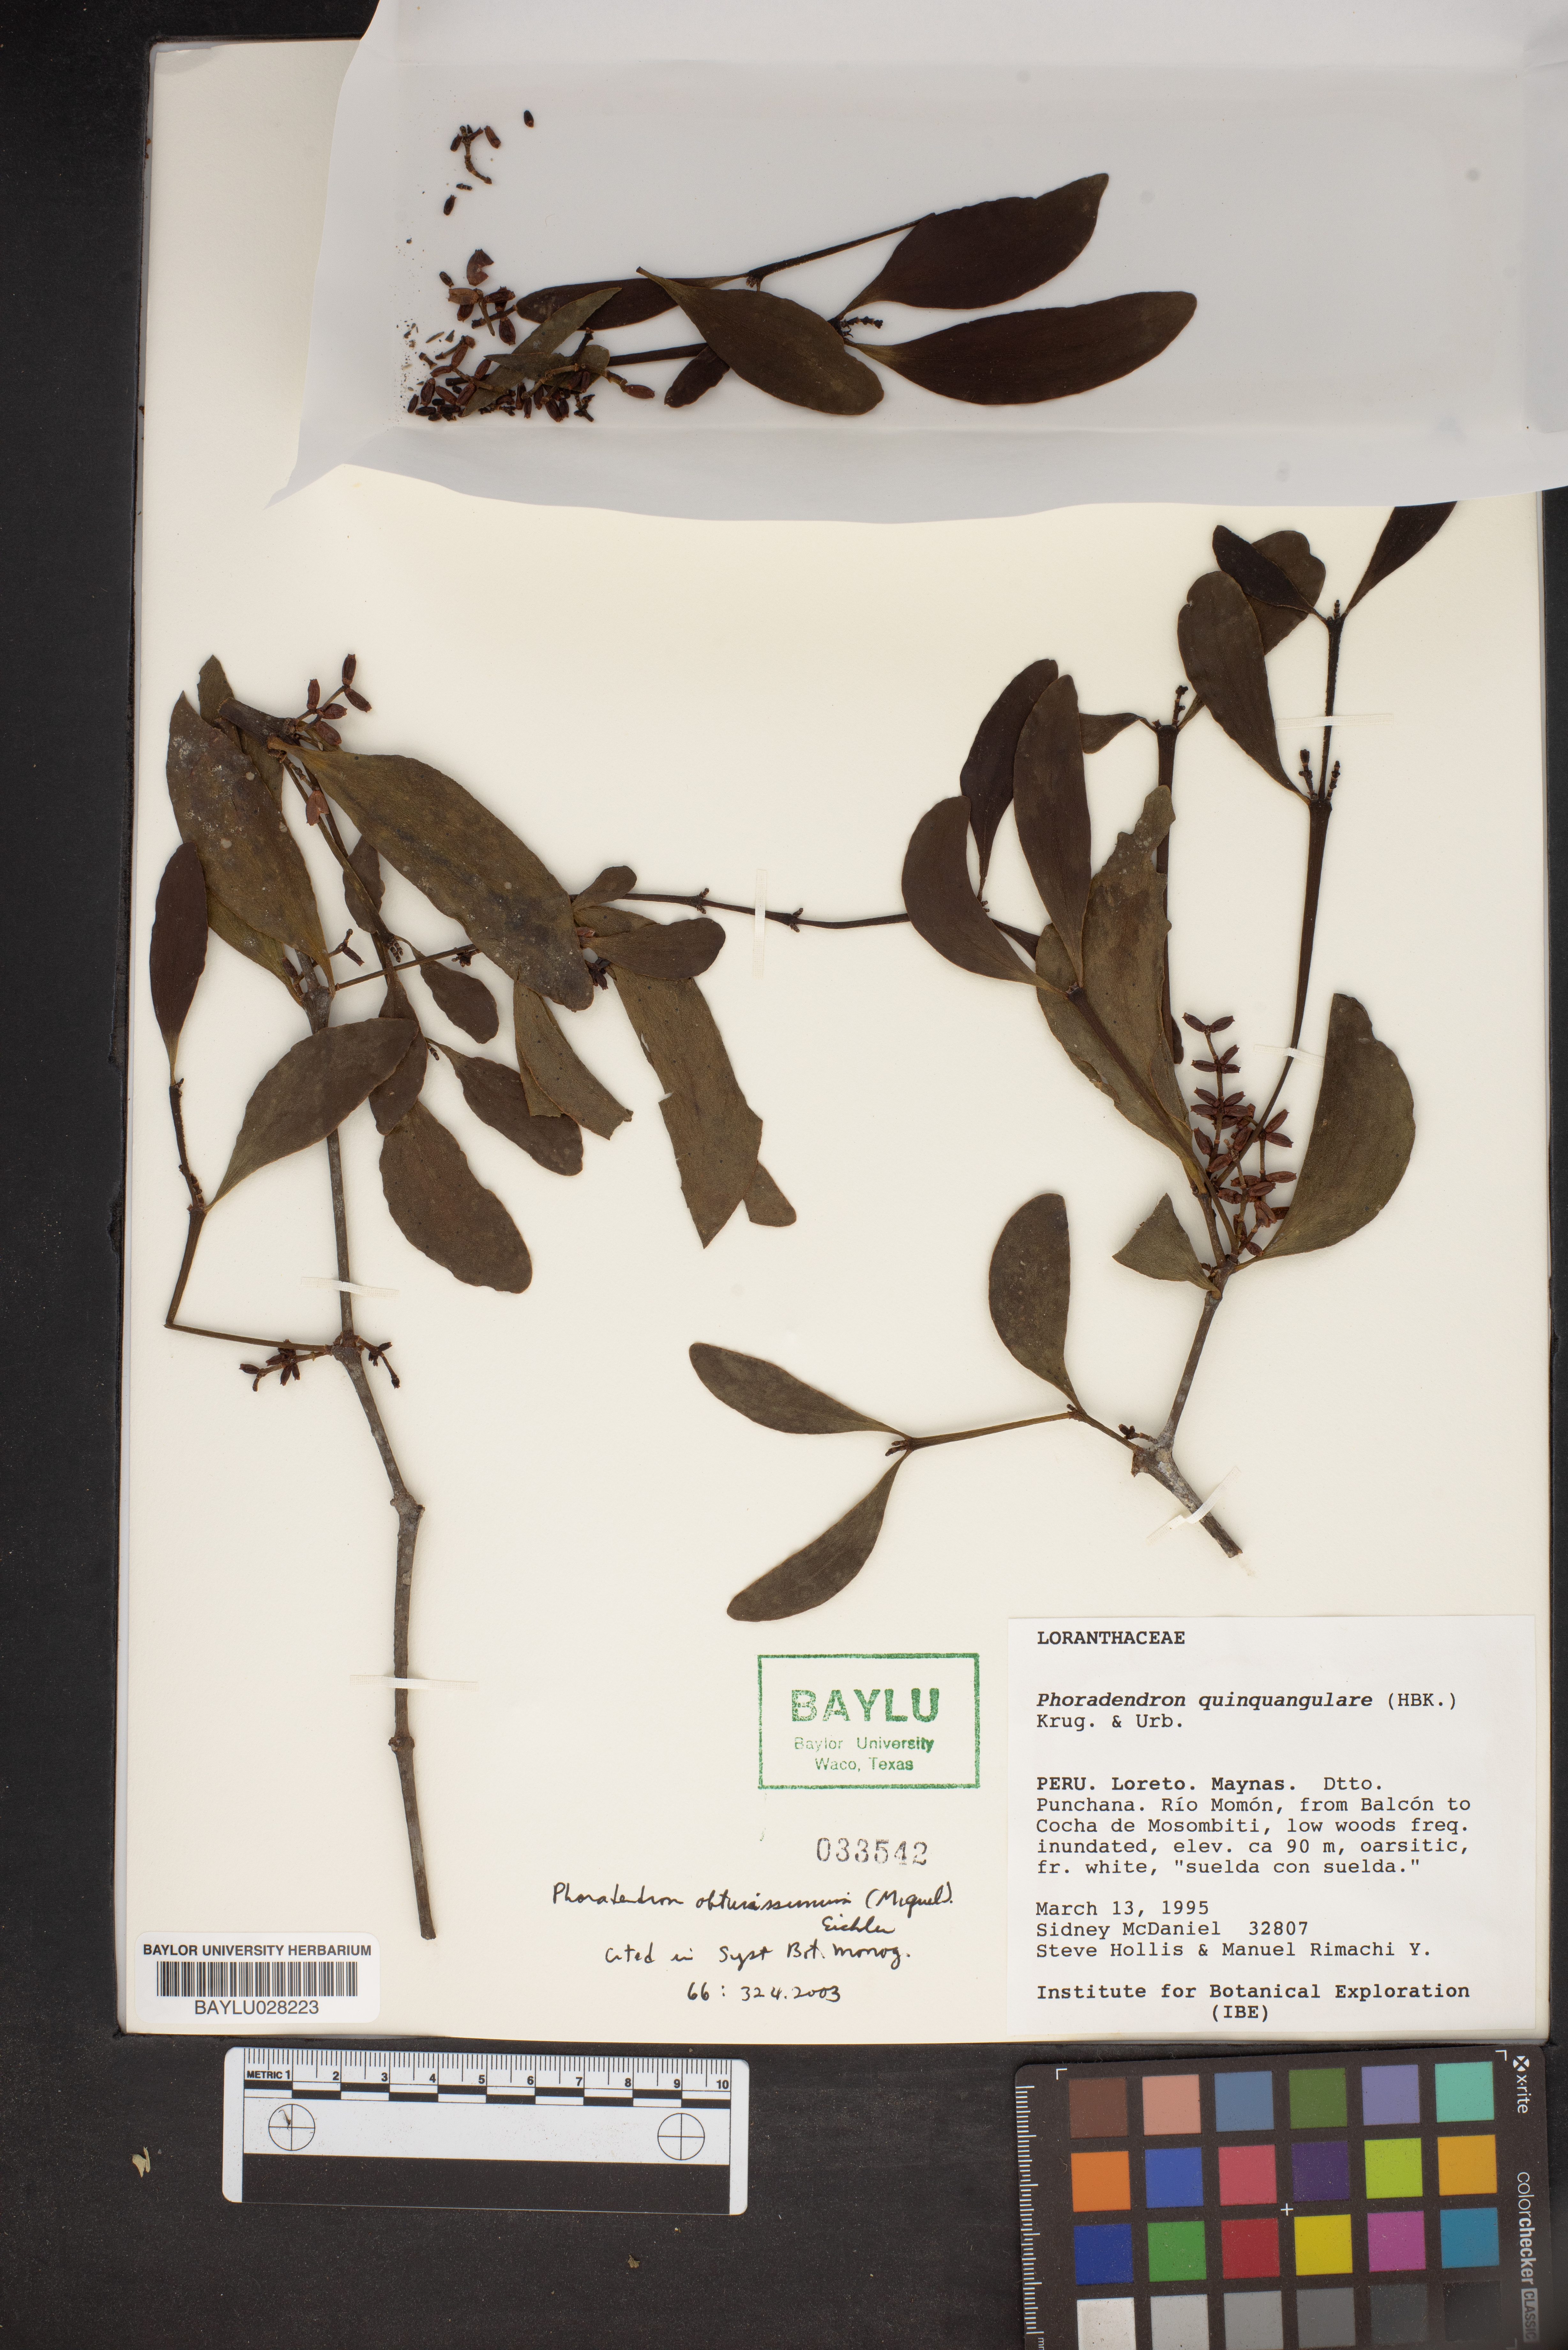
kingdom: Plantae
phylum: Tracheophyta
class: Magnoliopsida
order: Santalales
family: Viscaceae
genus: Phoradendron
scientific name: Phoradendron obtusissimum
